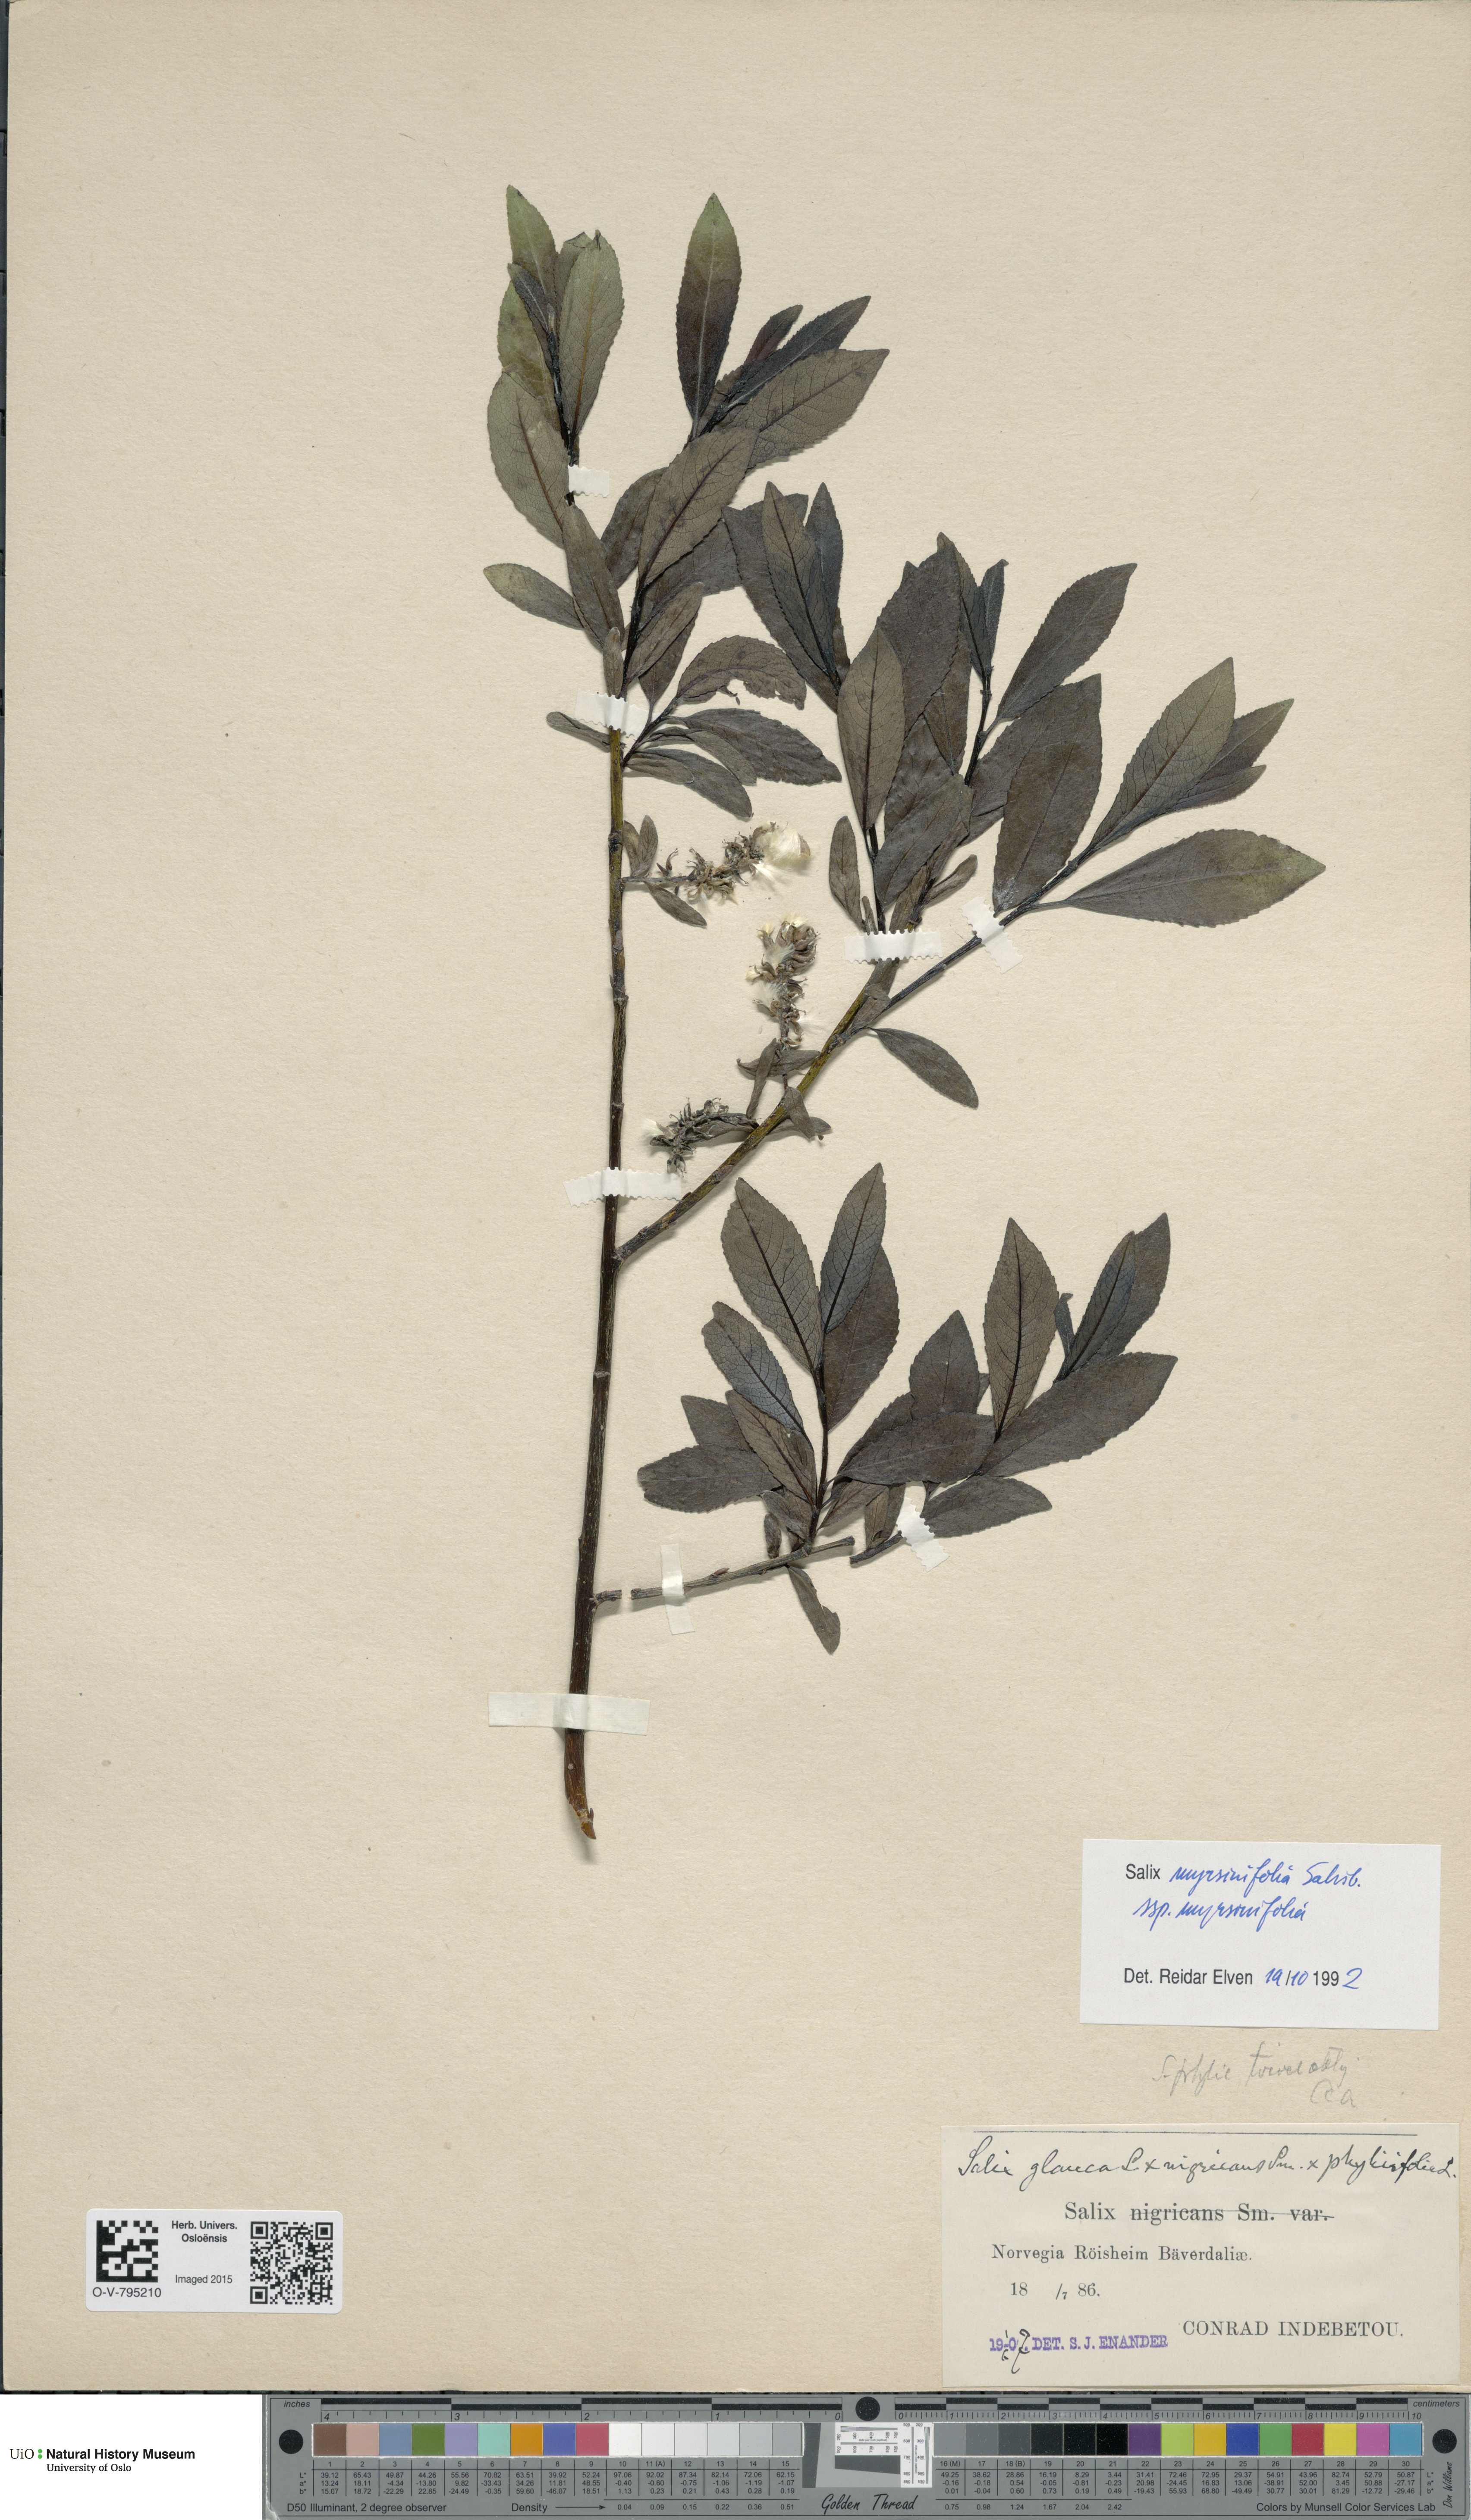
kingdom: Plantae
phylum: Tracheophyta
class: Magnoliopsida
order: Malpighiales
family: Salicaceae
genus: Salix
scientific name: Salix myrsinifolia
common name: Dark-leaved willow
